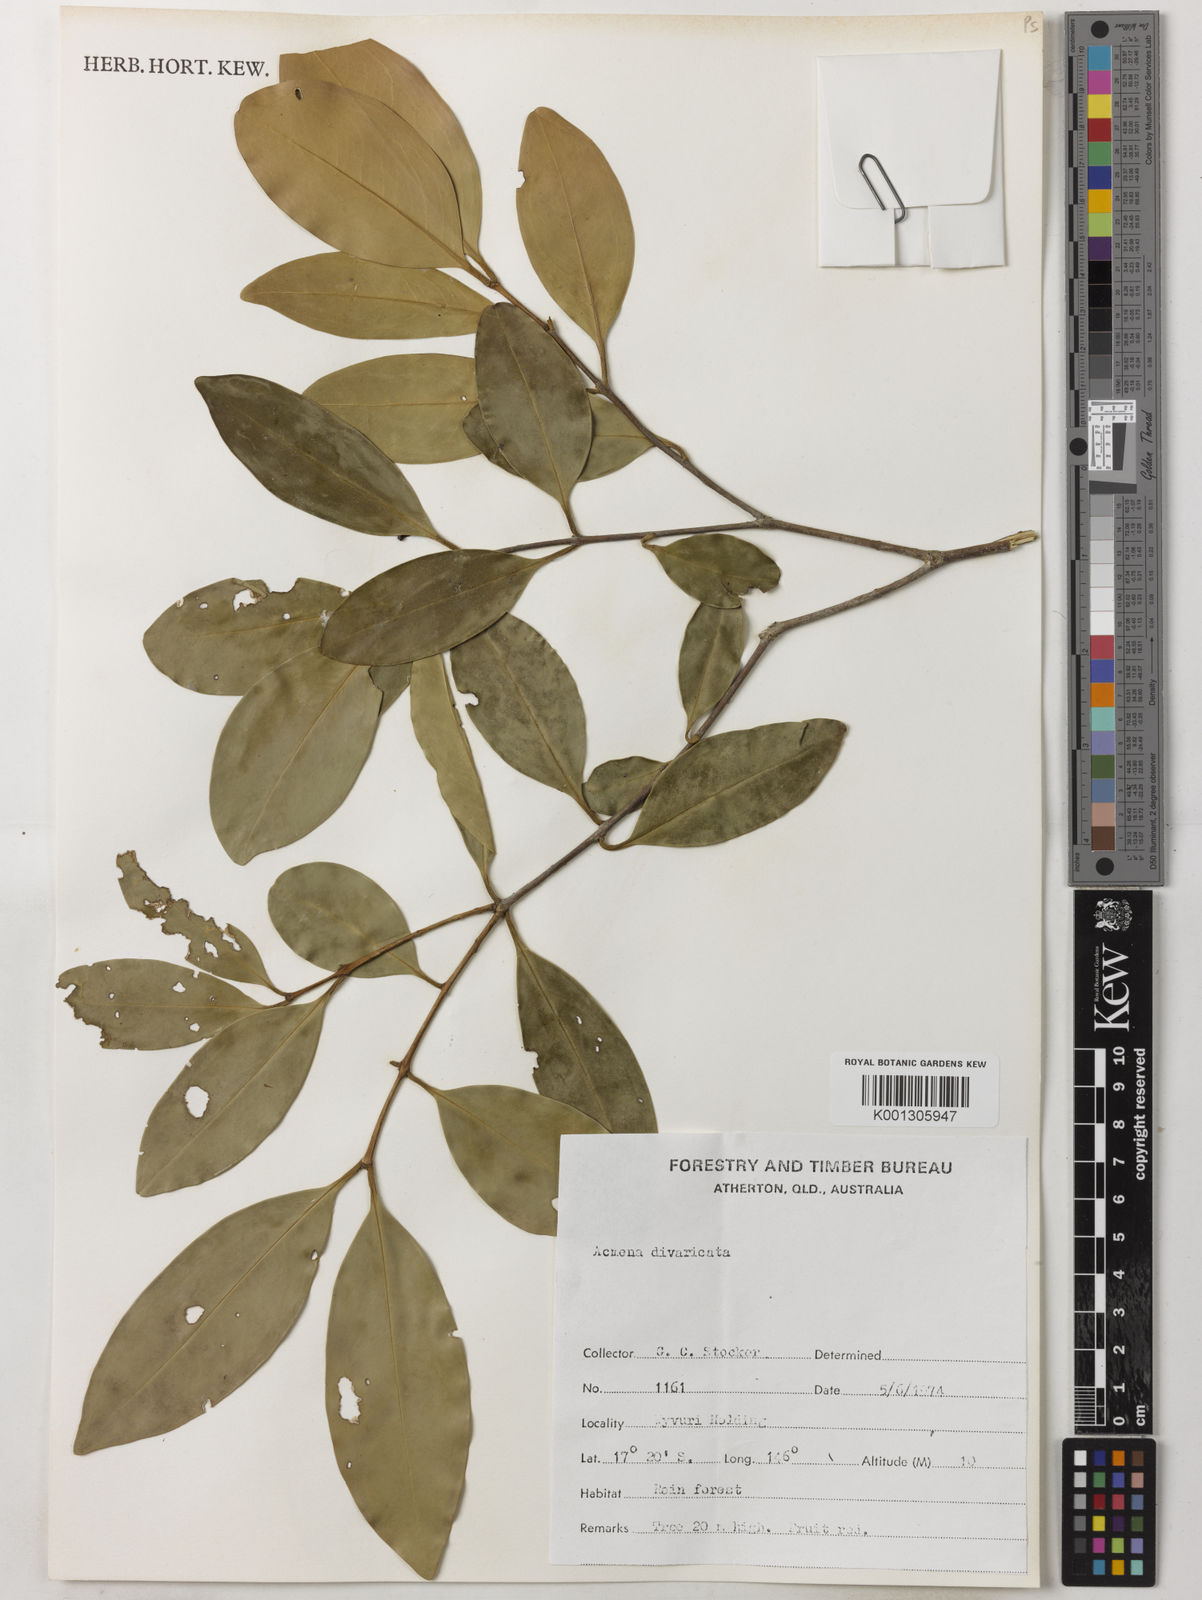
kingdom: Plantae
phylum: Tracheophyta
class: Magnoliopsida
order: Myrtales
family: Myrtaceae
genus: Syzygium
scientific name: Syzygium divaricatum
